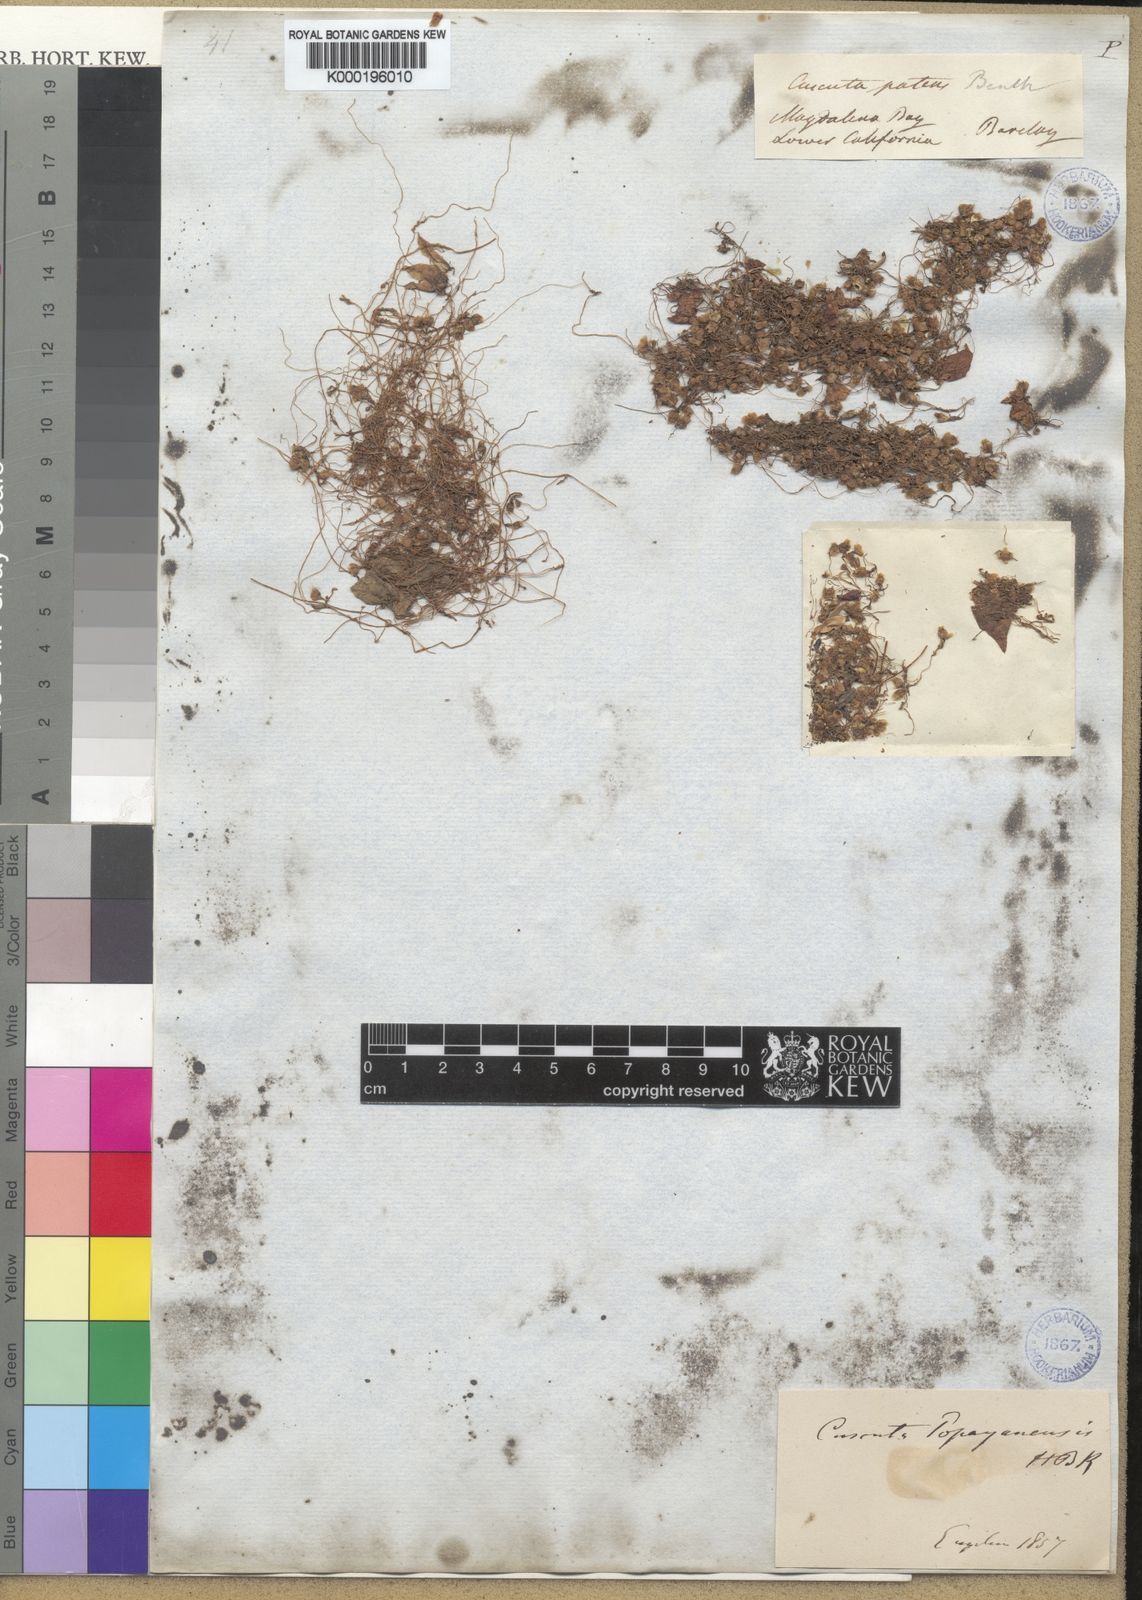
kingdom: Plantae
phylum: Tracheophyta
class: Magnoliopsida
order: Solanales
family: Convolvulaceae
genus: Cuscuta
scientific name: Cuscuta corymbosa
